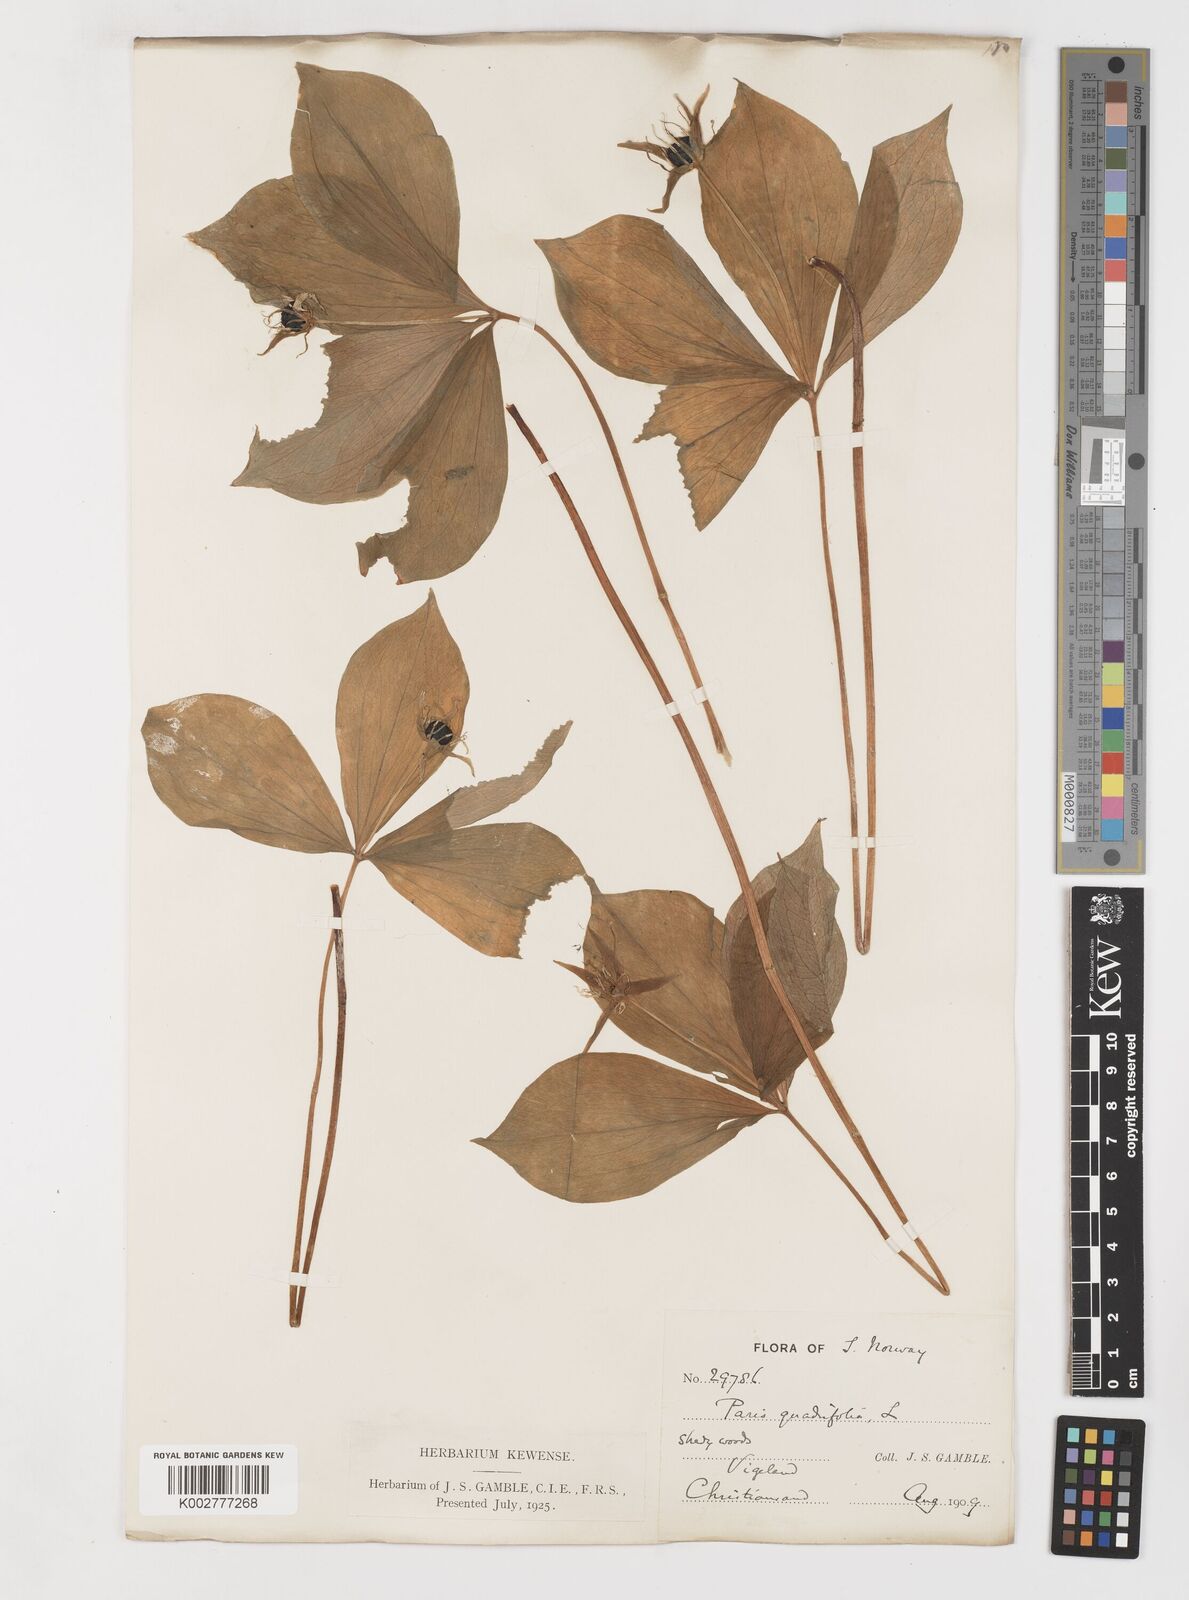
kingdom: Plantae
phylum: Tracheophyta
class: Liliopsida
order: Liliales
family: Melanthiaceae
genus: Paris
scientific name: Paris quadrifolia
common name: Herb-paris
